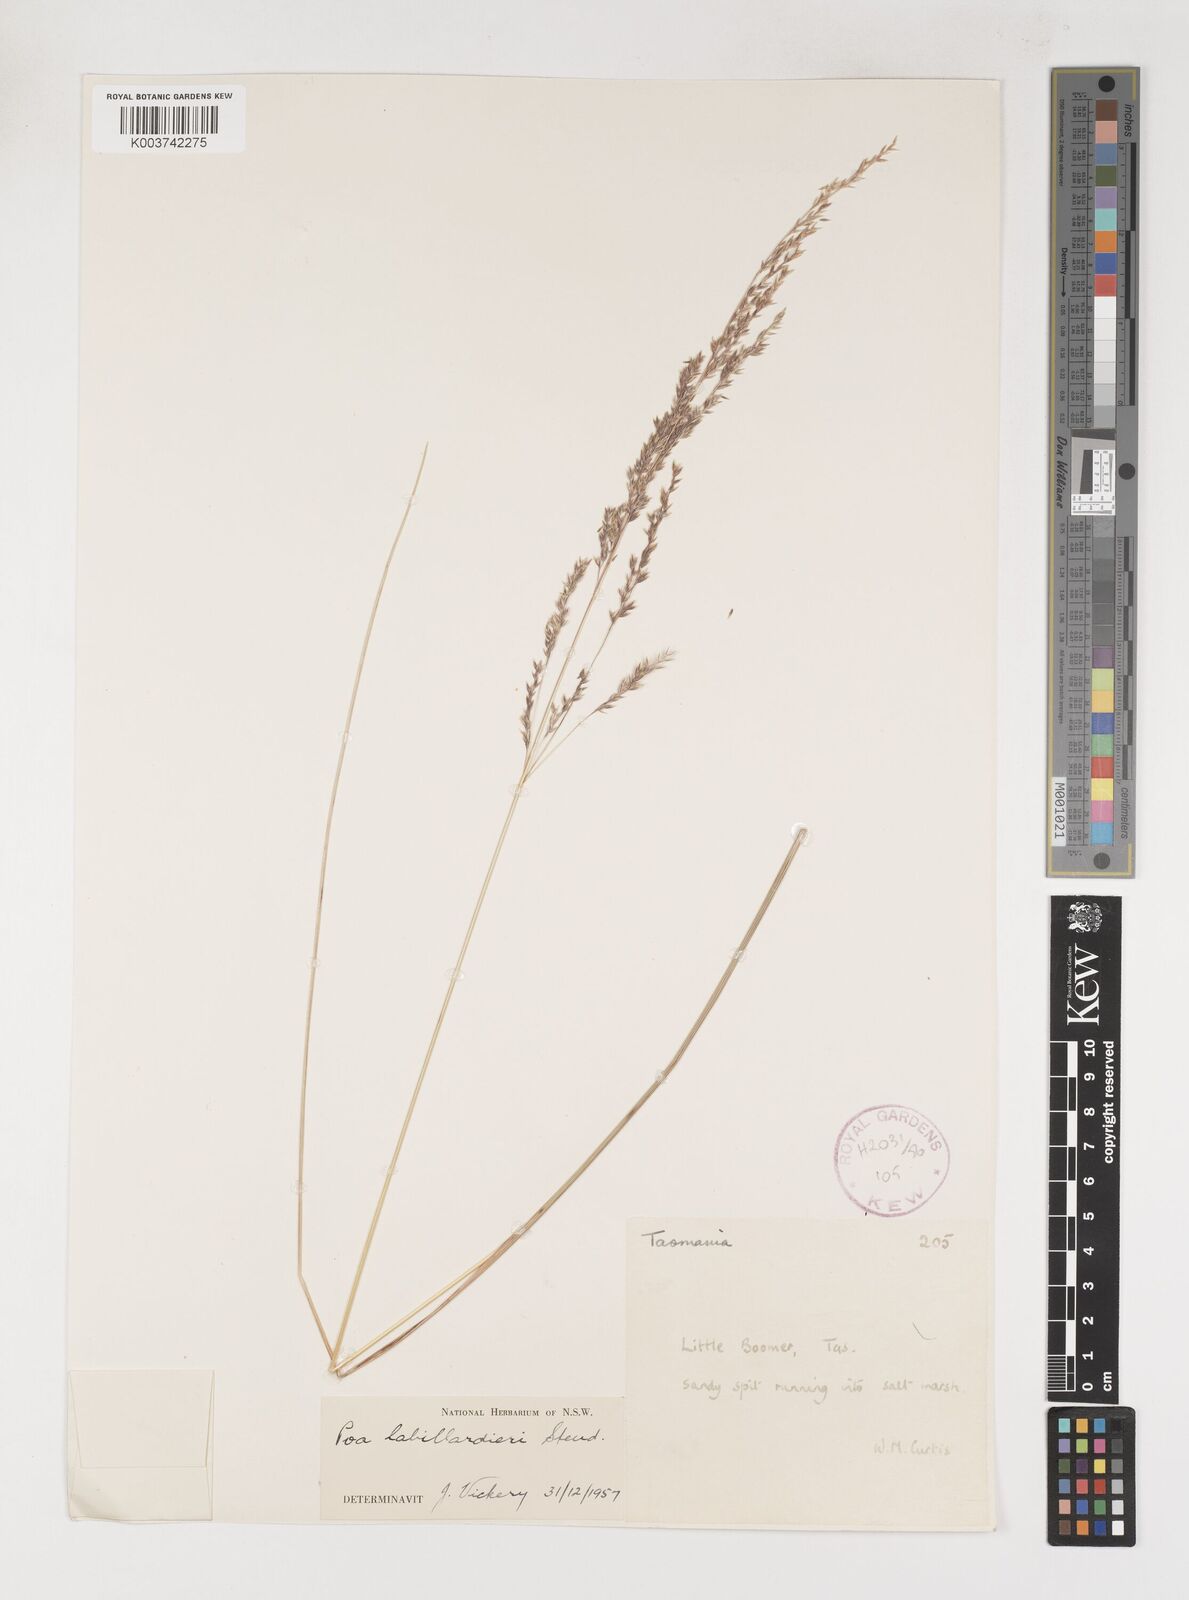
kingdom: Plantae
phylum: Tracheophyta
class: Liliopsida
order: Poales
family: Poaceae
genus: Poa
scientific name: Poa labillardierei
